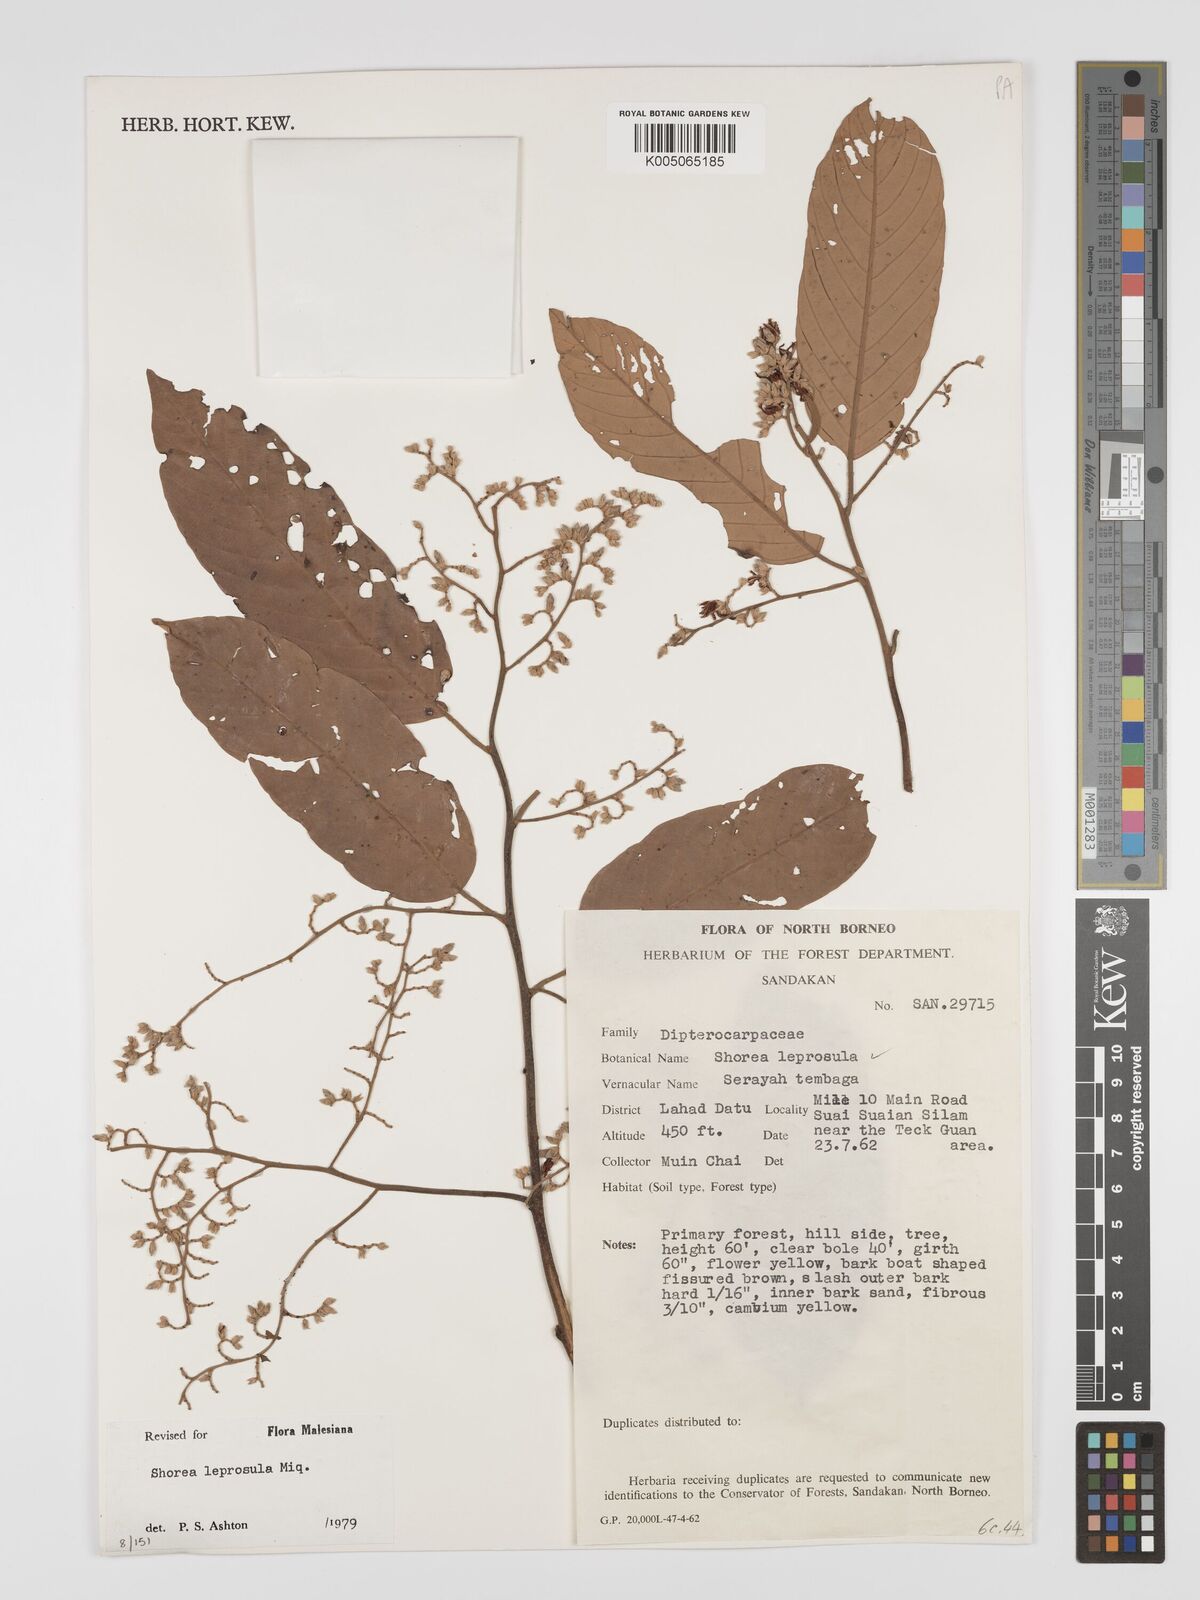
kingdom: Plantae
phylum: Tracheophyta
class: Magnoliopsida
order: Malvales
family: Dipterocarpaceae
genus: Shorea
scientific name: Shorea leprosula
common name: Light red meranti
